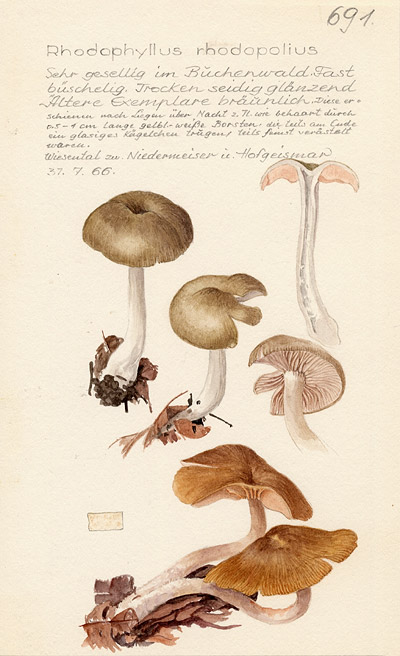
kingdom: Fungi
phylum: Basidiomycota
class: Agaricomycetes
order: Agaricales
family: Entolomataceae
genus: Entoloma
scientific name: Entoloma rhodopolium
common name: Wood pinkgill
